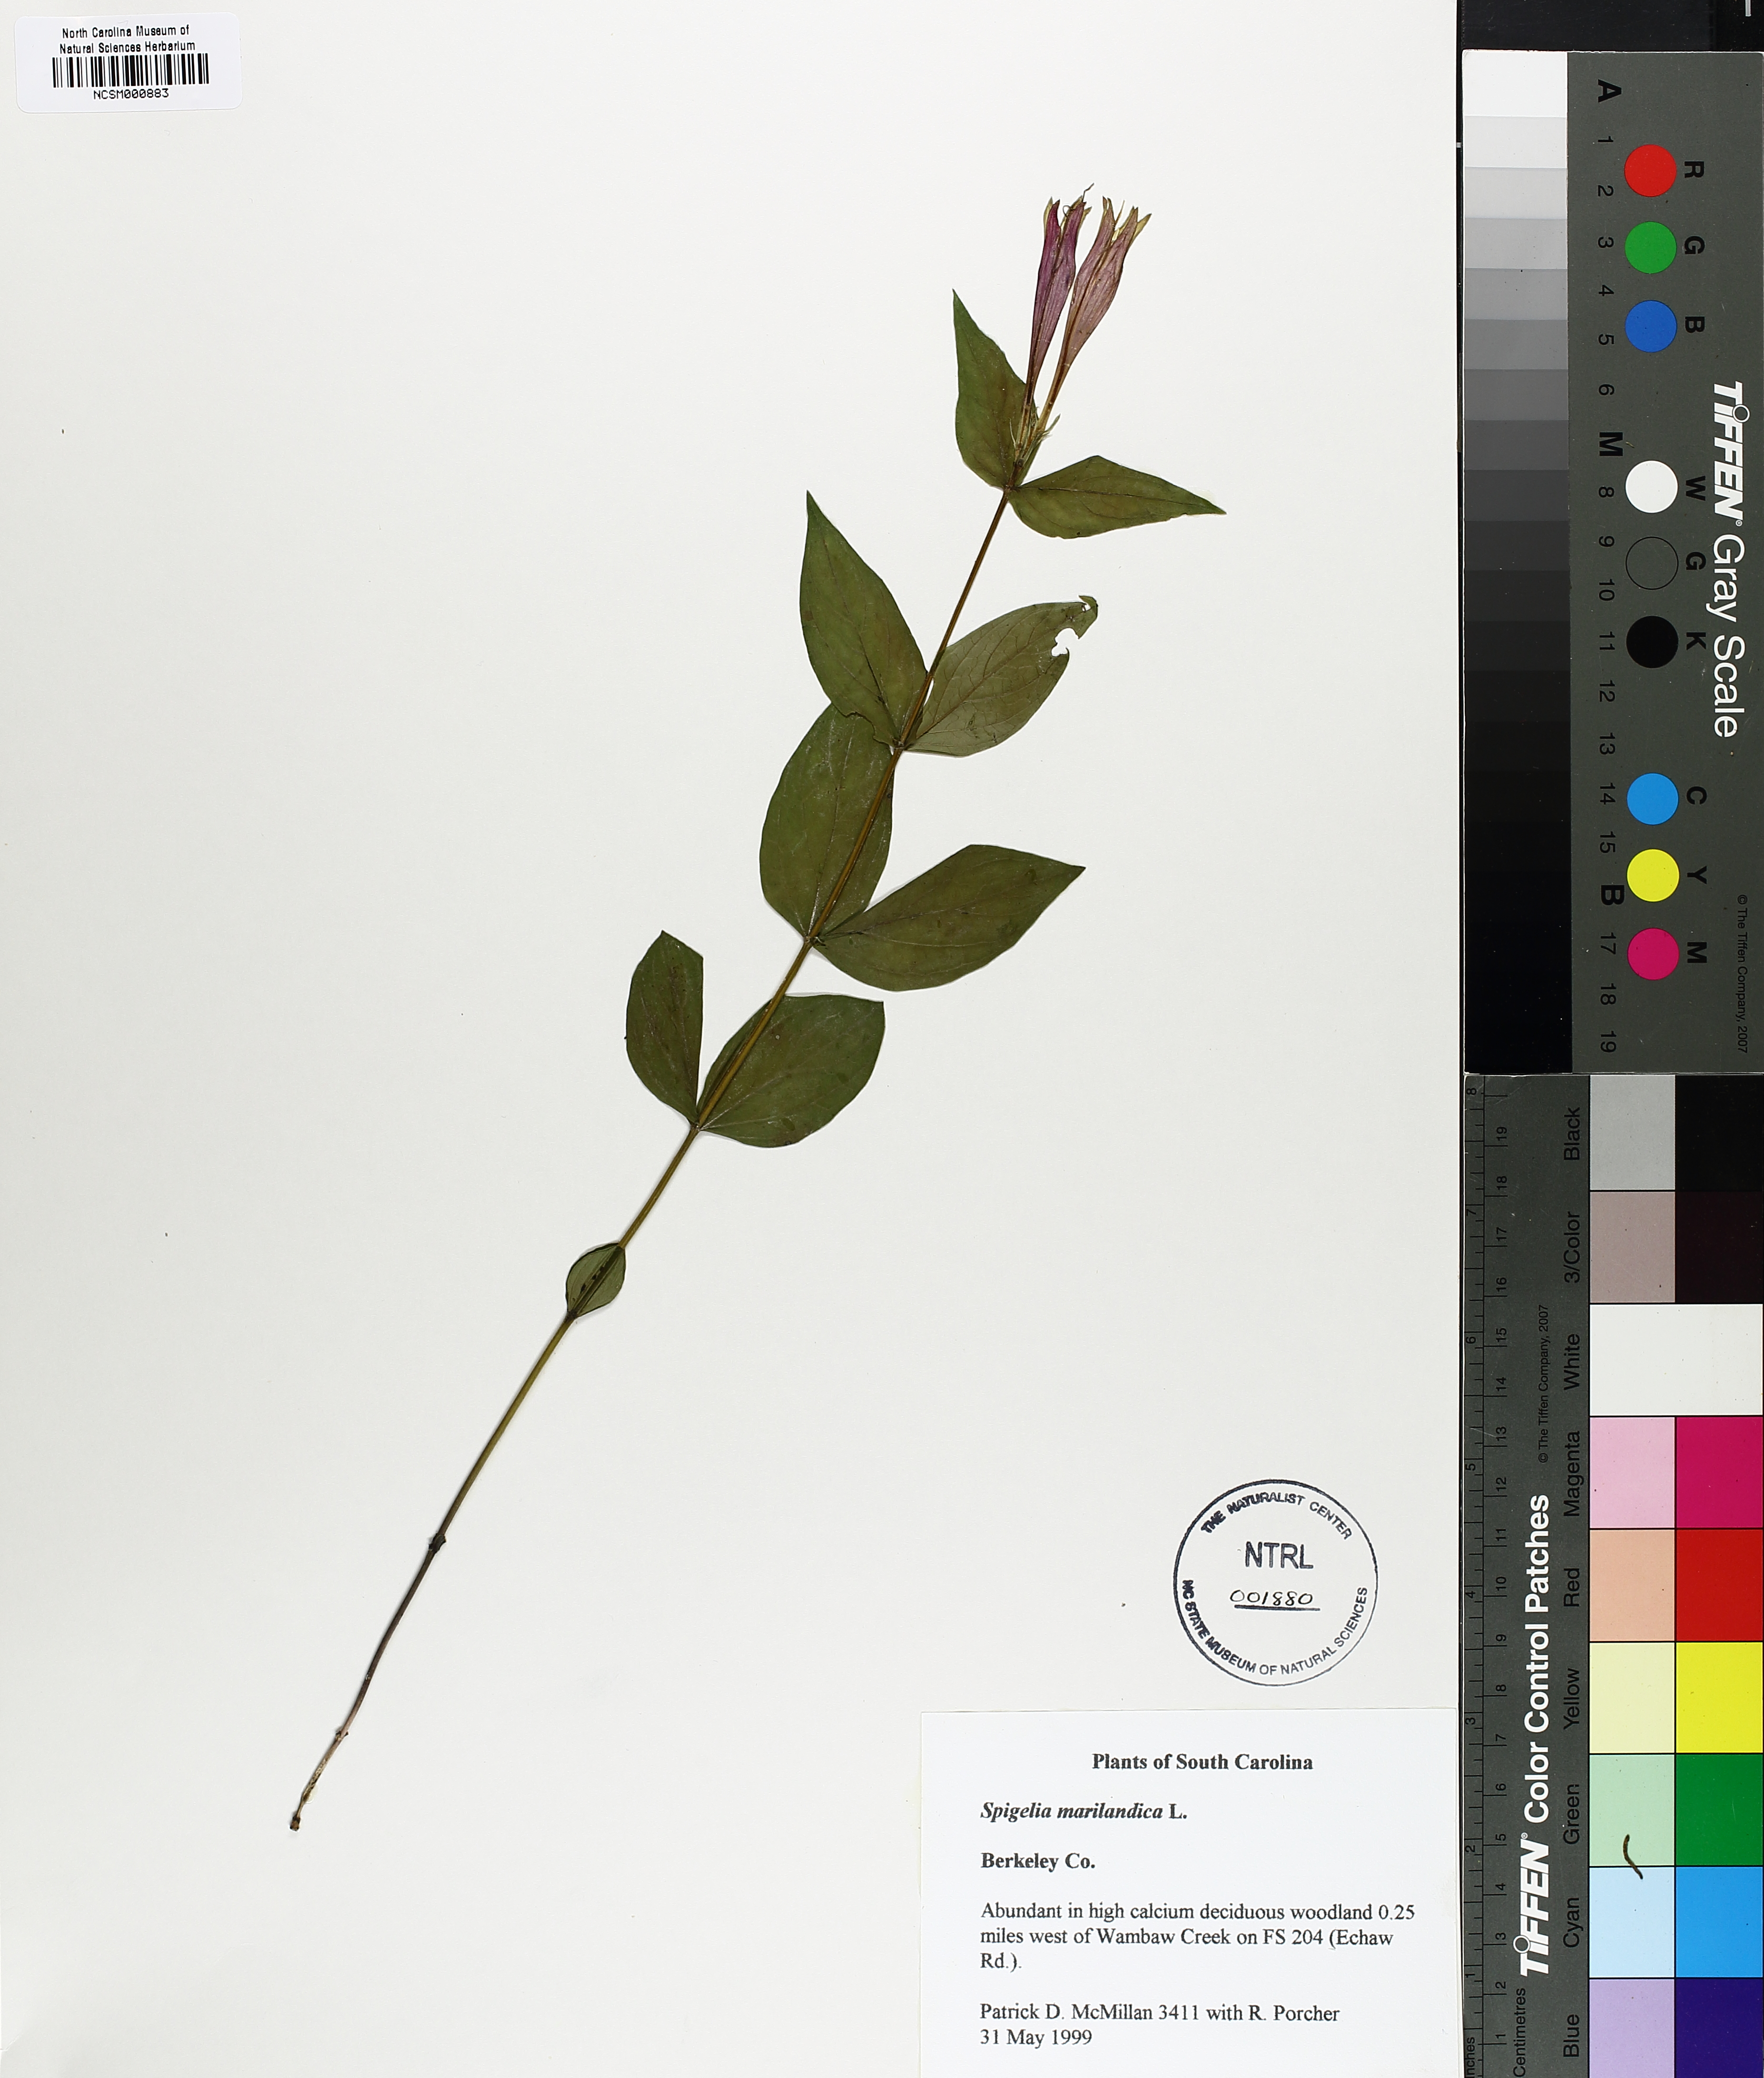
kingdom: Plantae
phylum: Tracheophyta
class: Magnoliopsida
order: Gentianales
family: Loganiaceae
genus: Spigelia
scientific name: Spigelia marilandica
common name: Indian-pink
